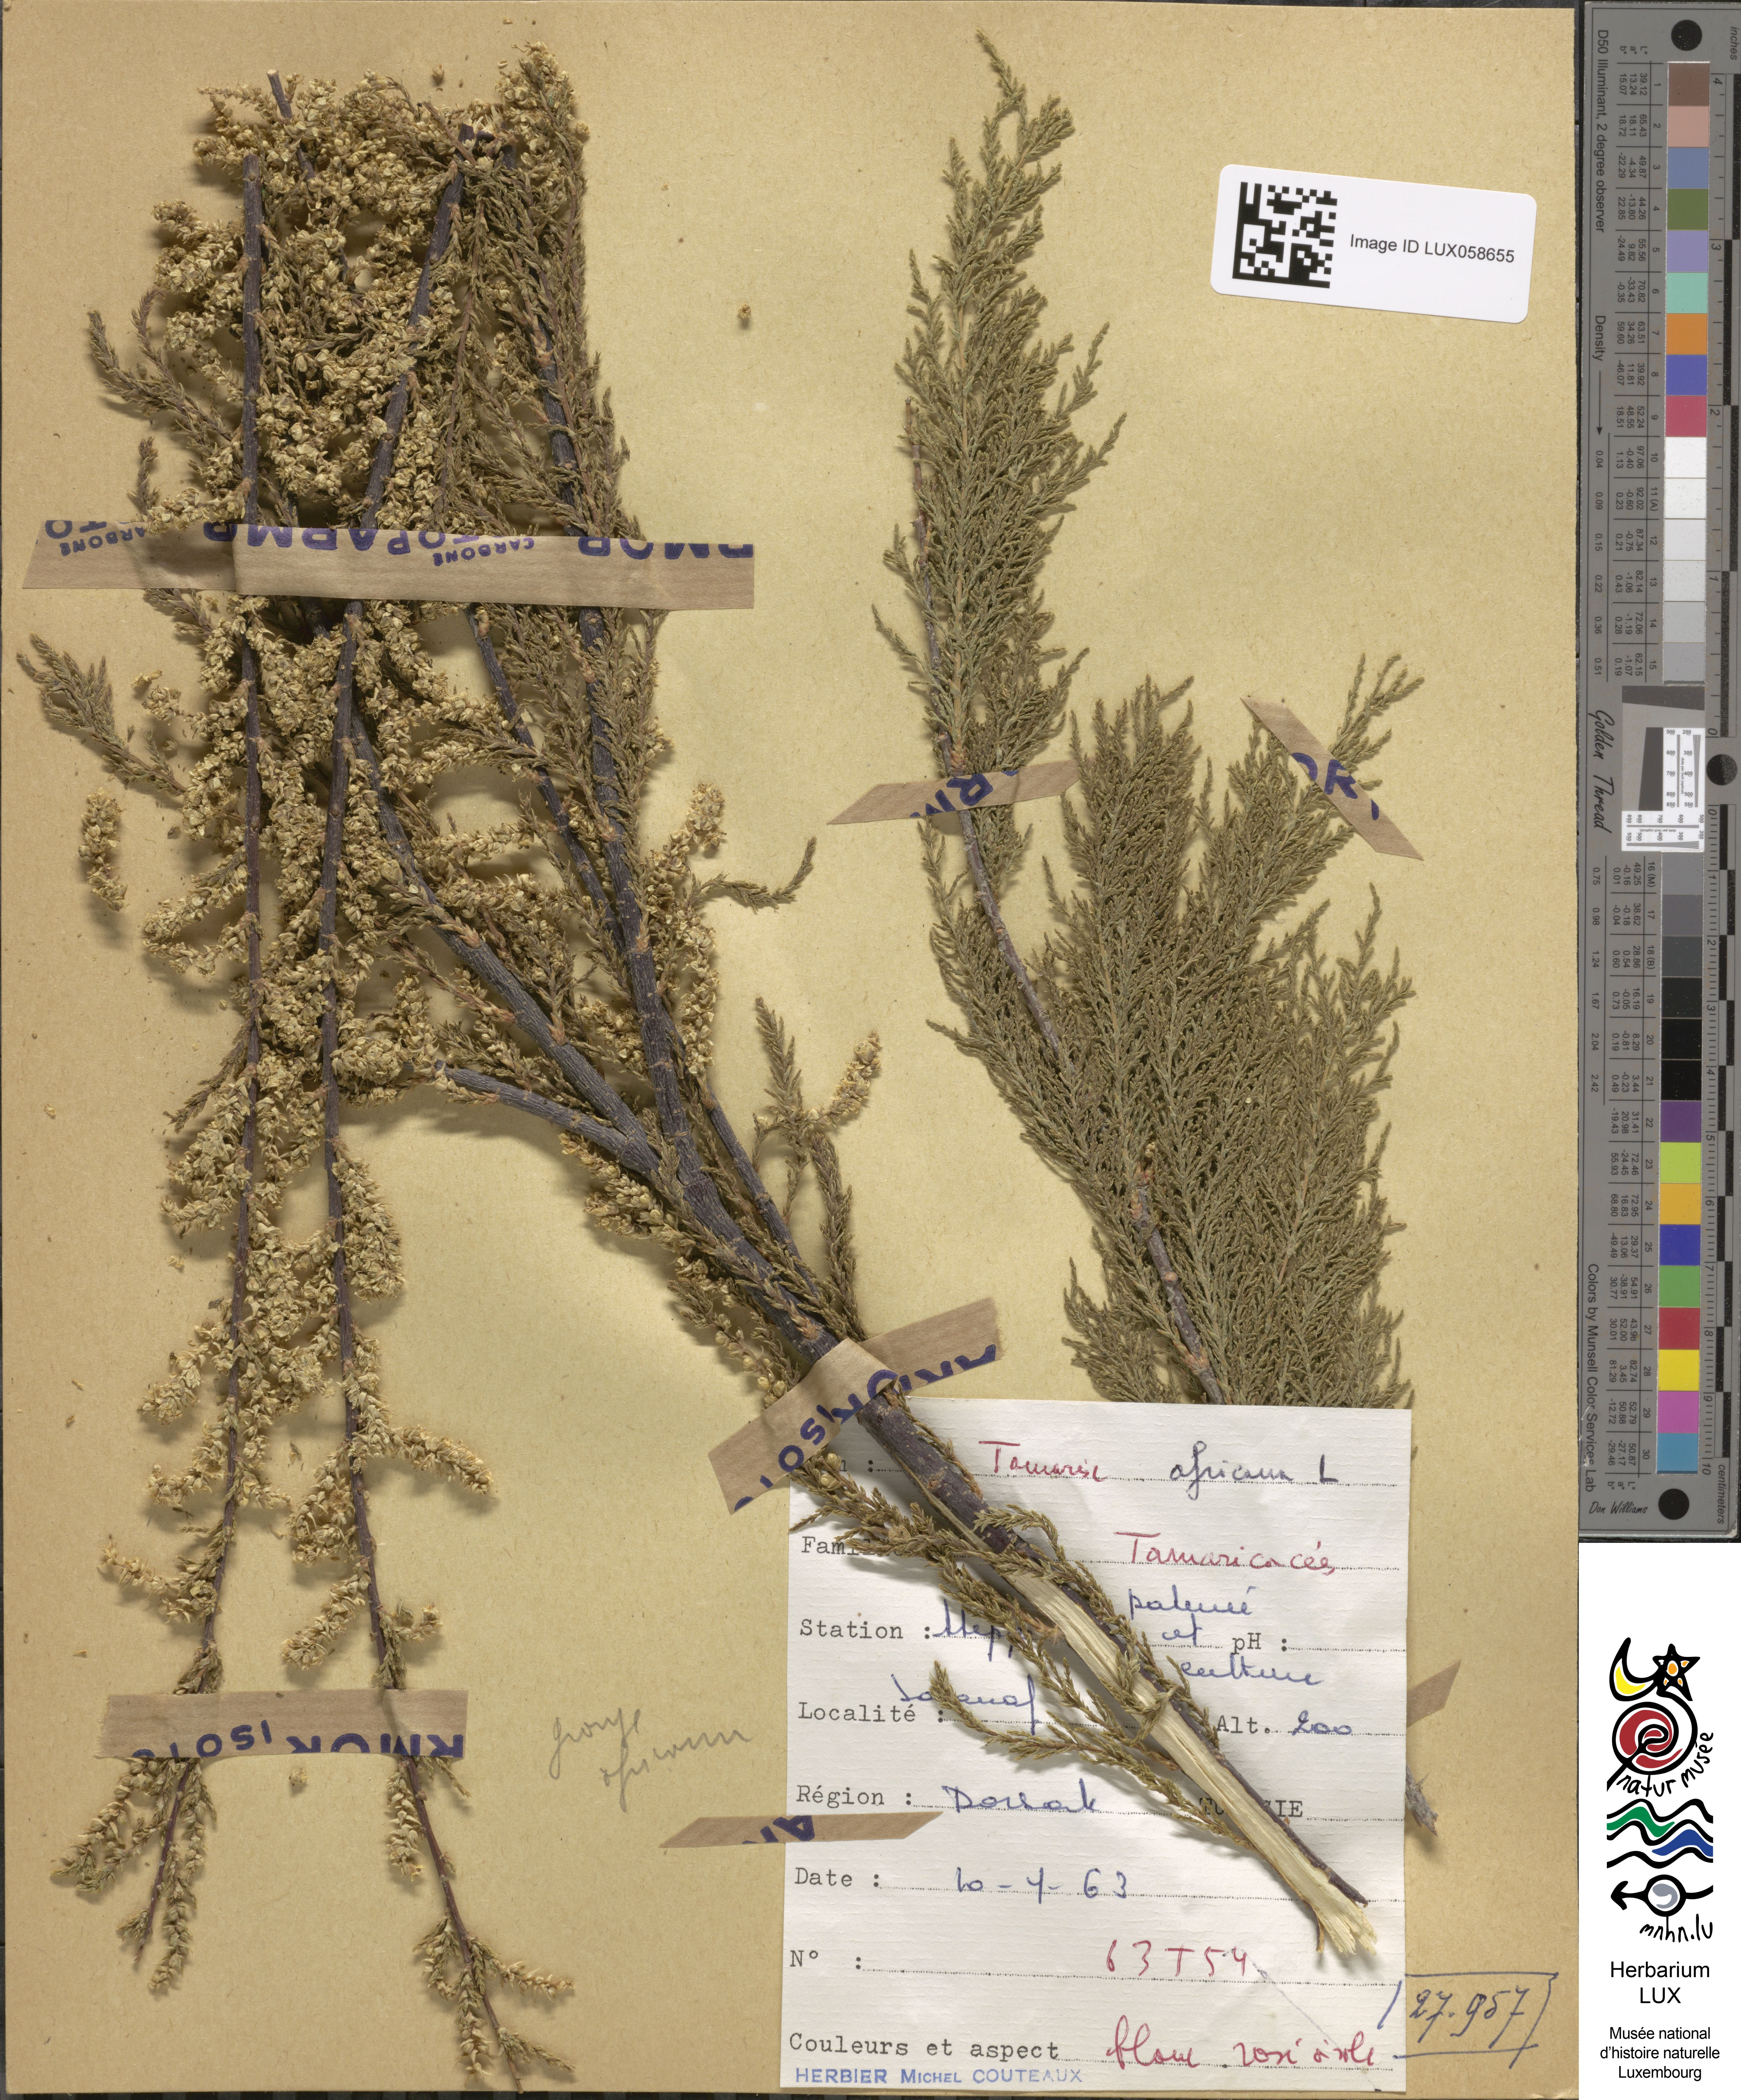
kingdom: Plantae
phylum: Tracheophyta
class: Magnoliopsida
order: Caryophyllales
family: Tamaricaceae
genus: Tamarix
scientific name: Tamarix africana
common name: African tamarisk
